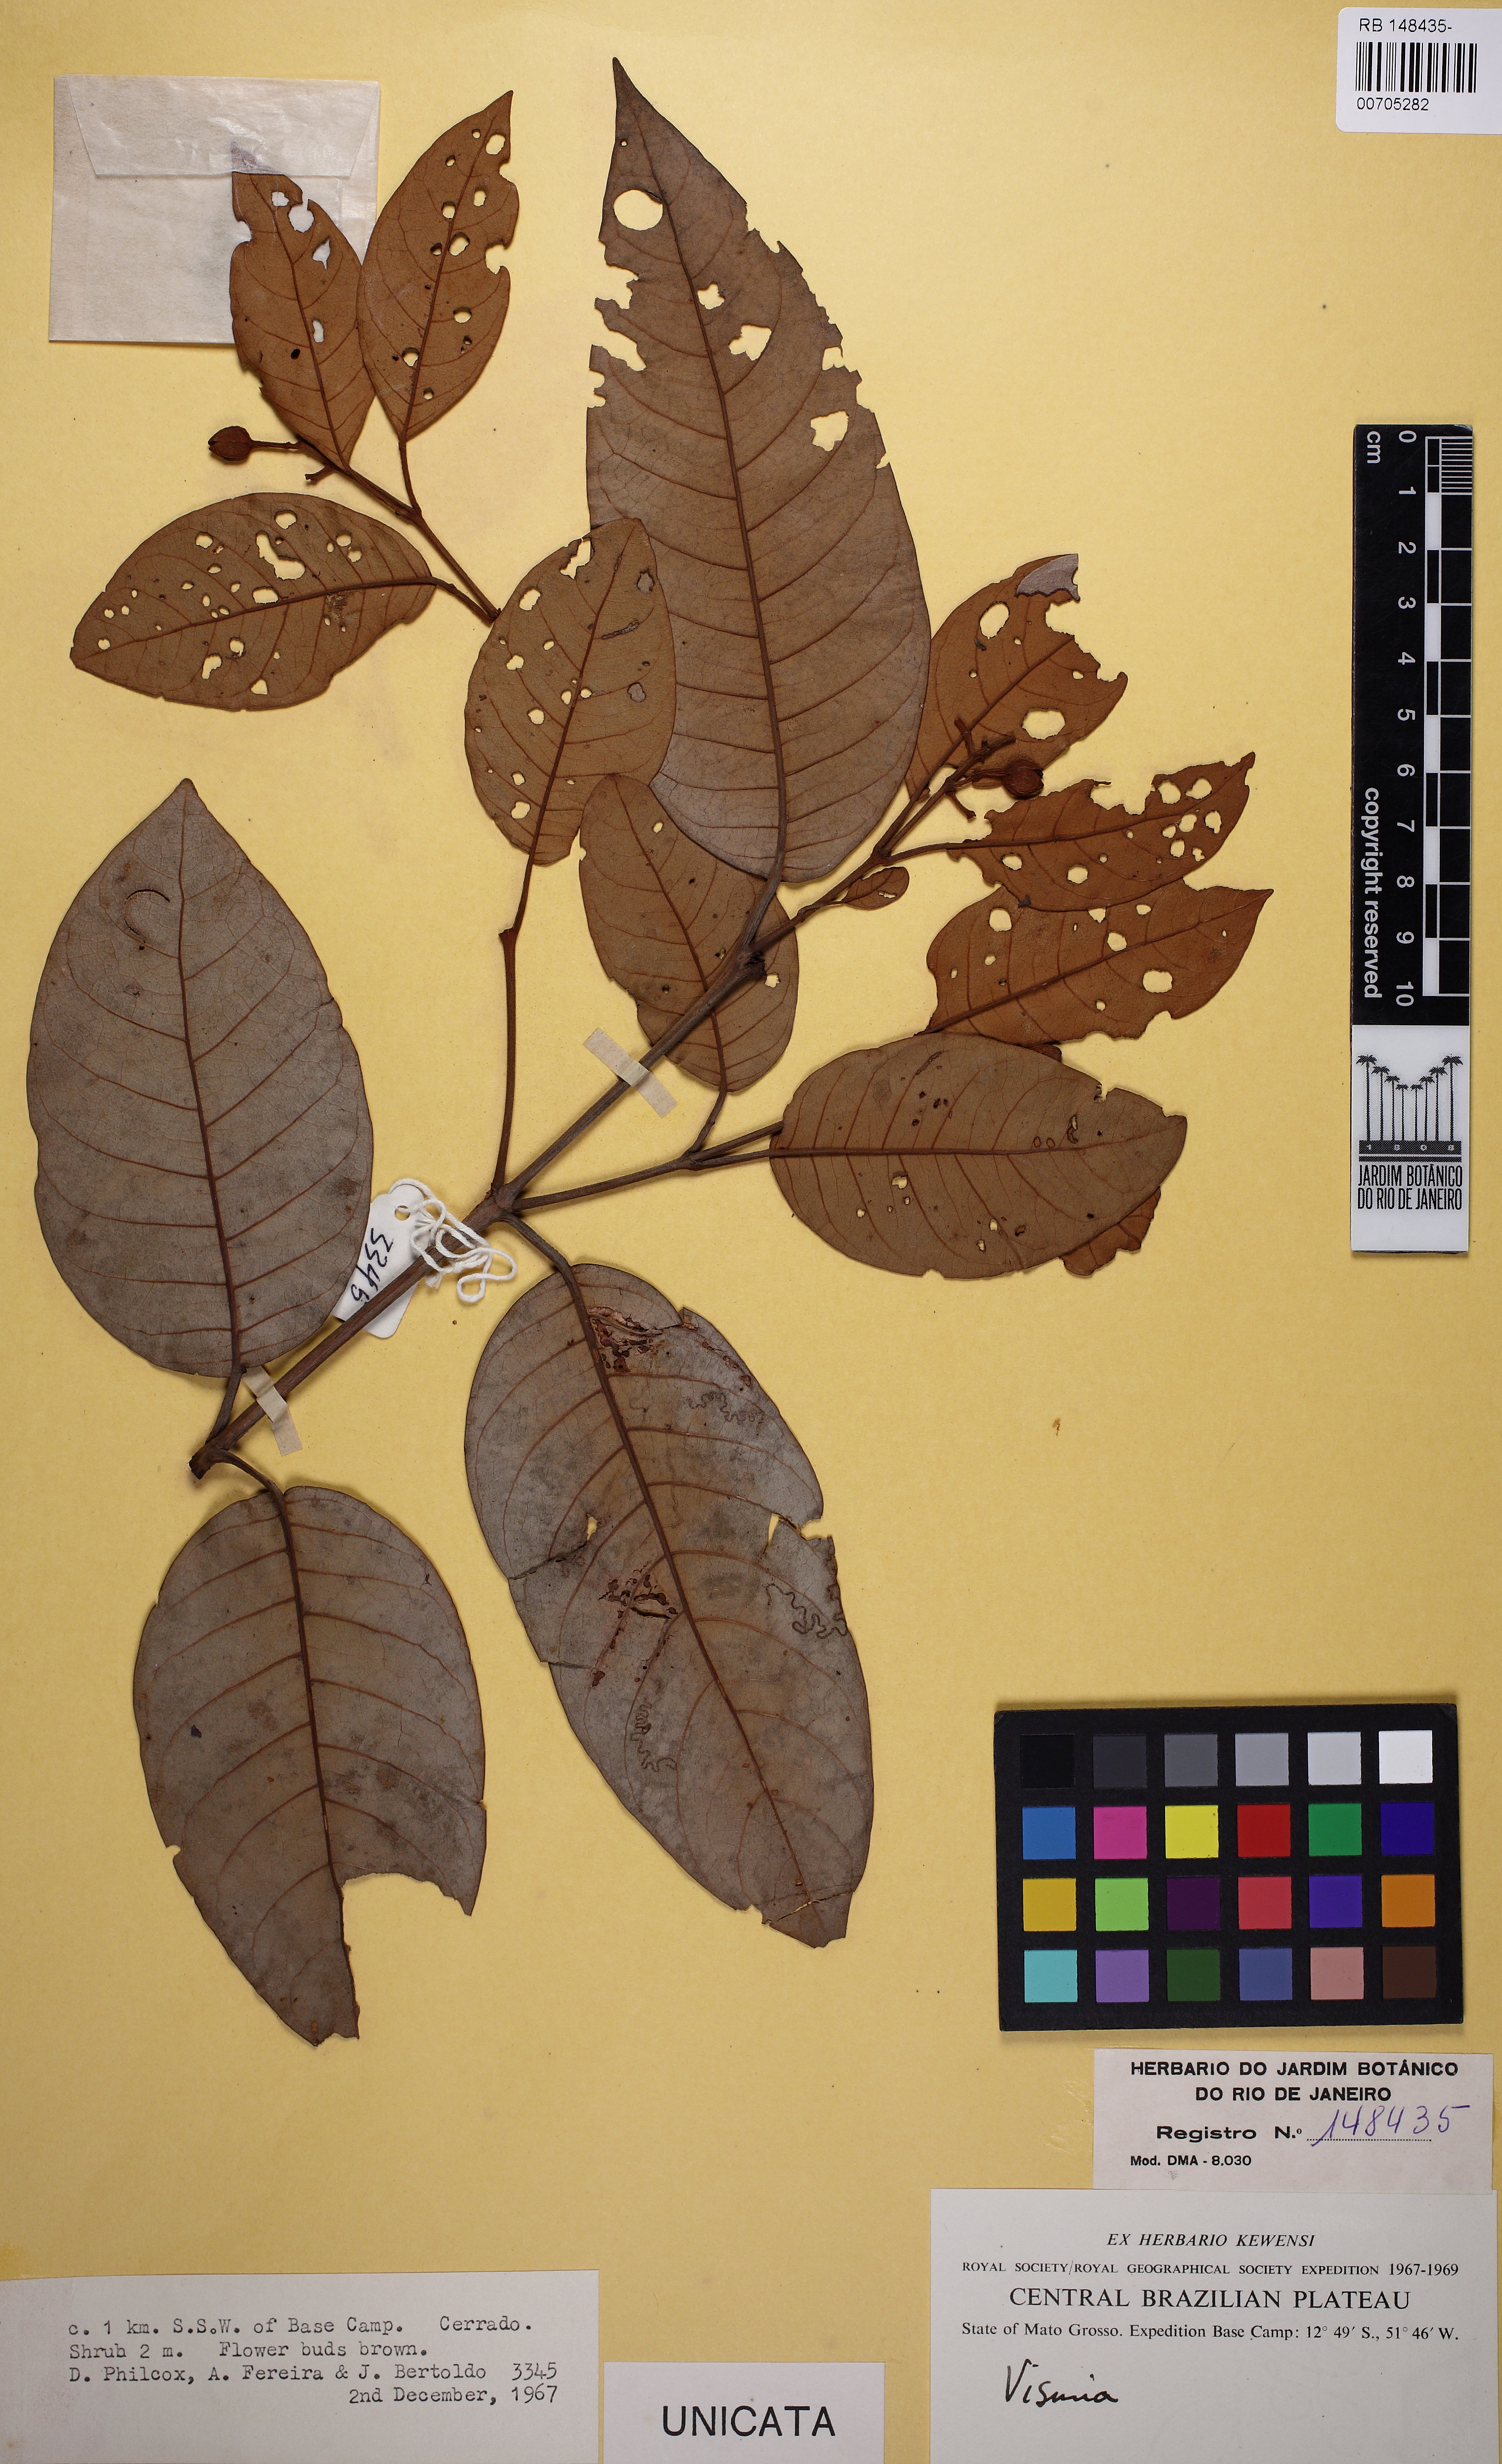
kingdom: Plantae
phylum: Tracheophyta
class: Magnoliopsida
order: Malpighiales
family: Hypericaceae
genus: Vismia
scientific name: Vismia japurensis
